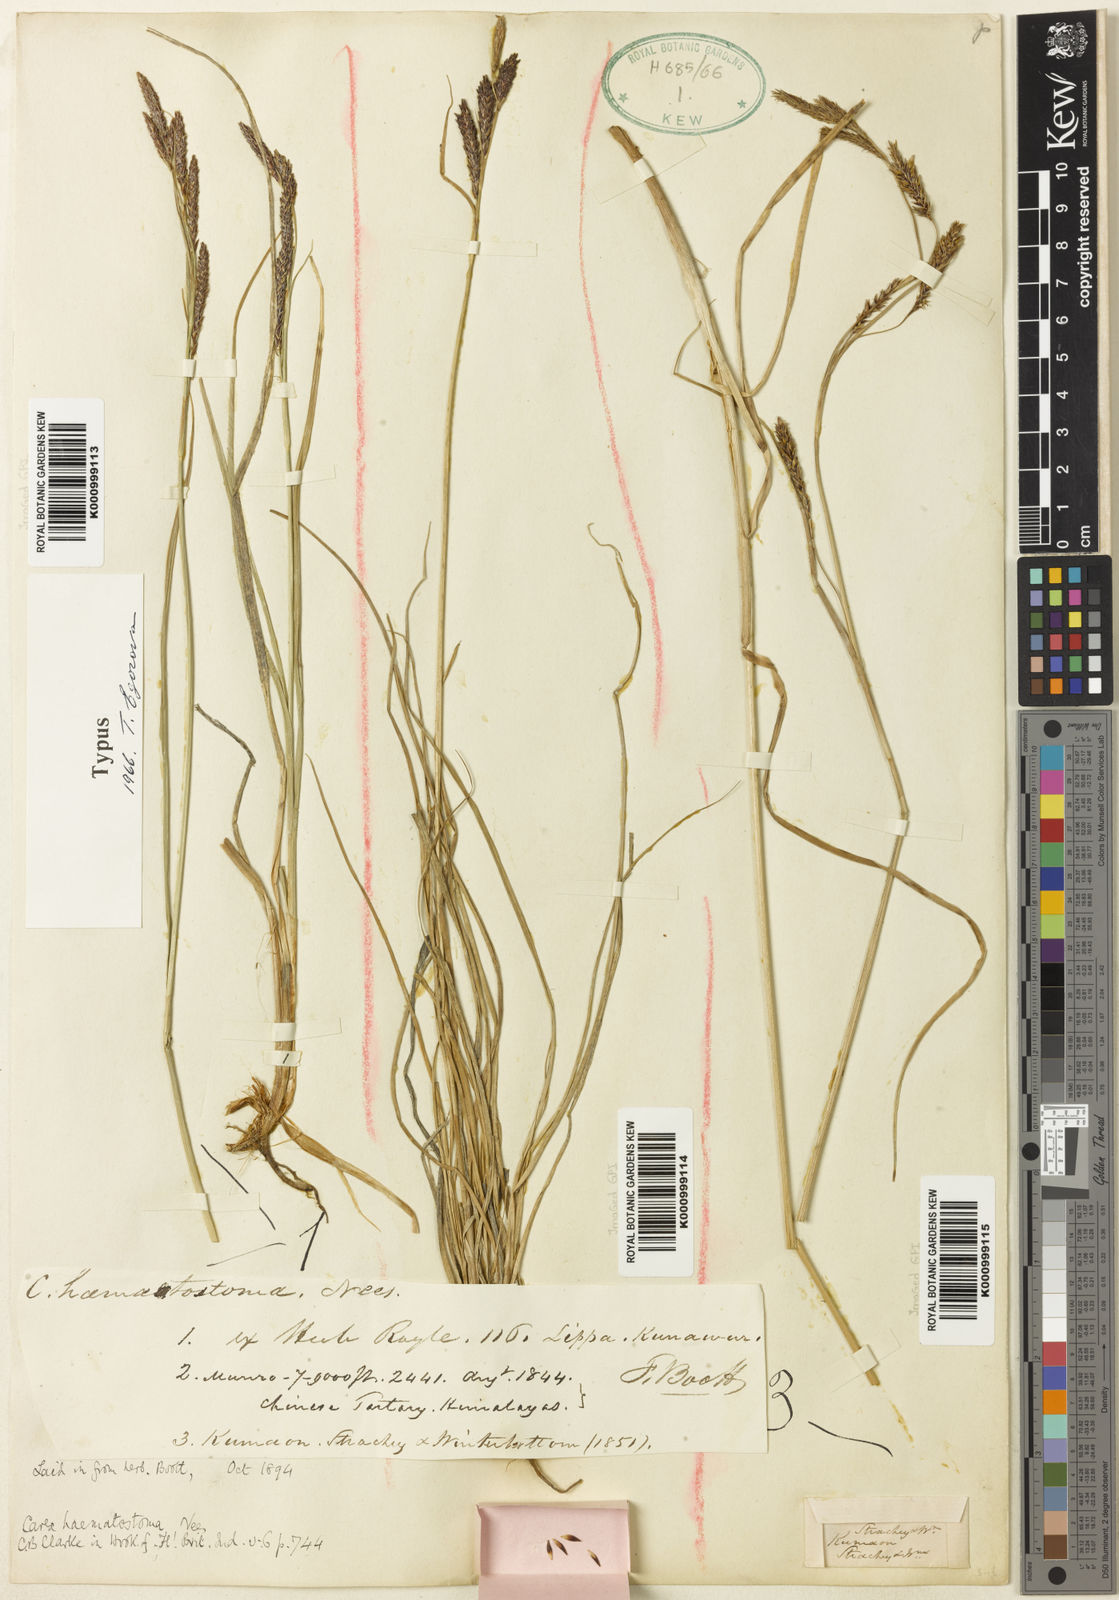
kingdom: Plantae
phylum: Tracheophyta
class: Liliopsida
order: Poales
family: Cyperaceae
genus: Carex
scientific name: Carex haematostoma
